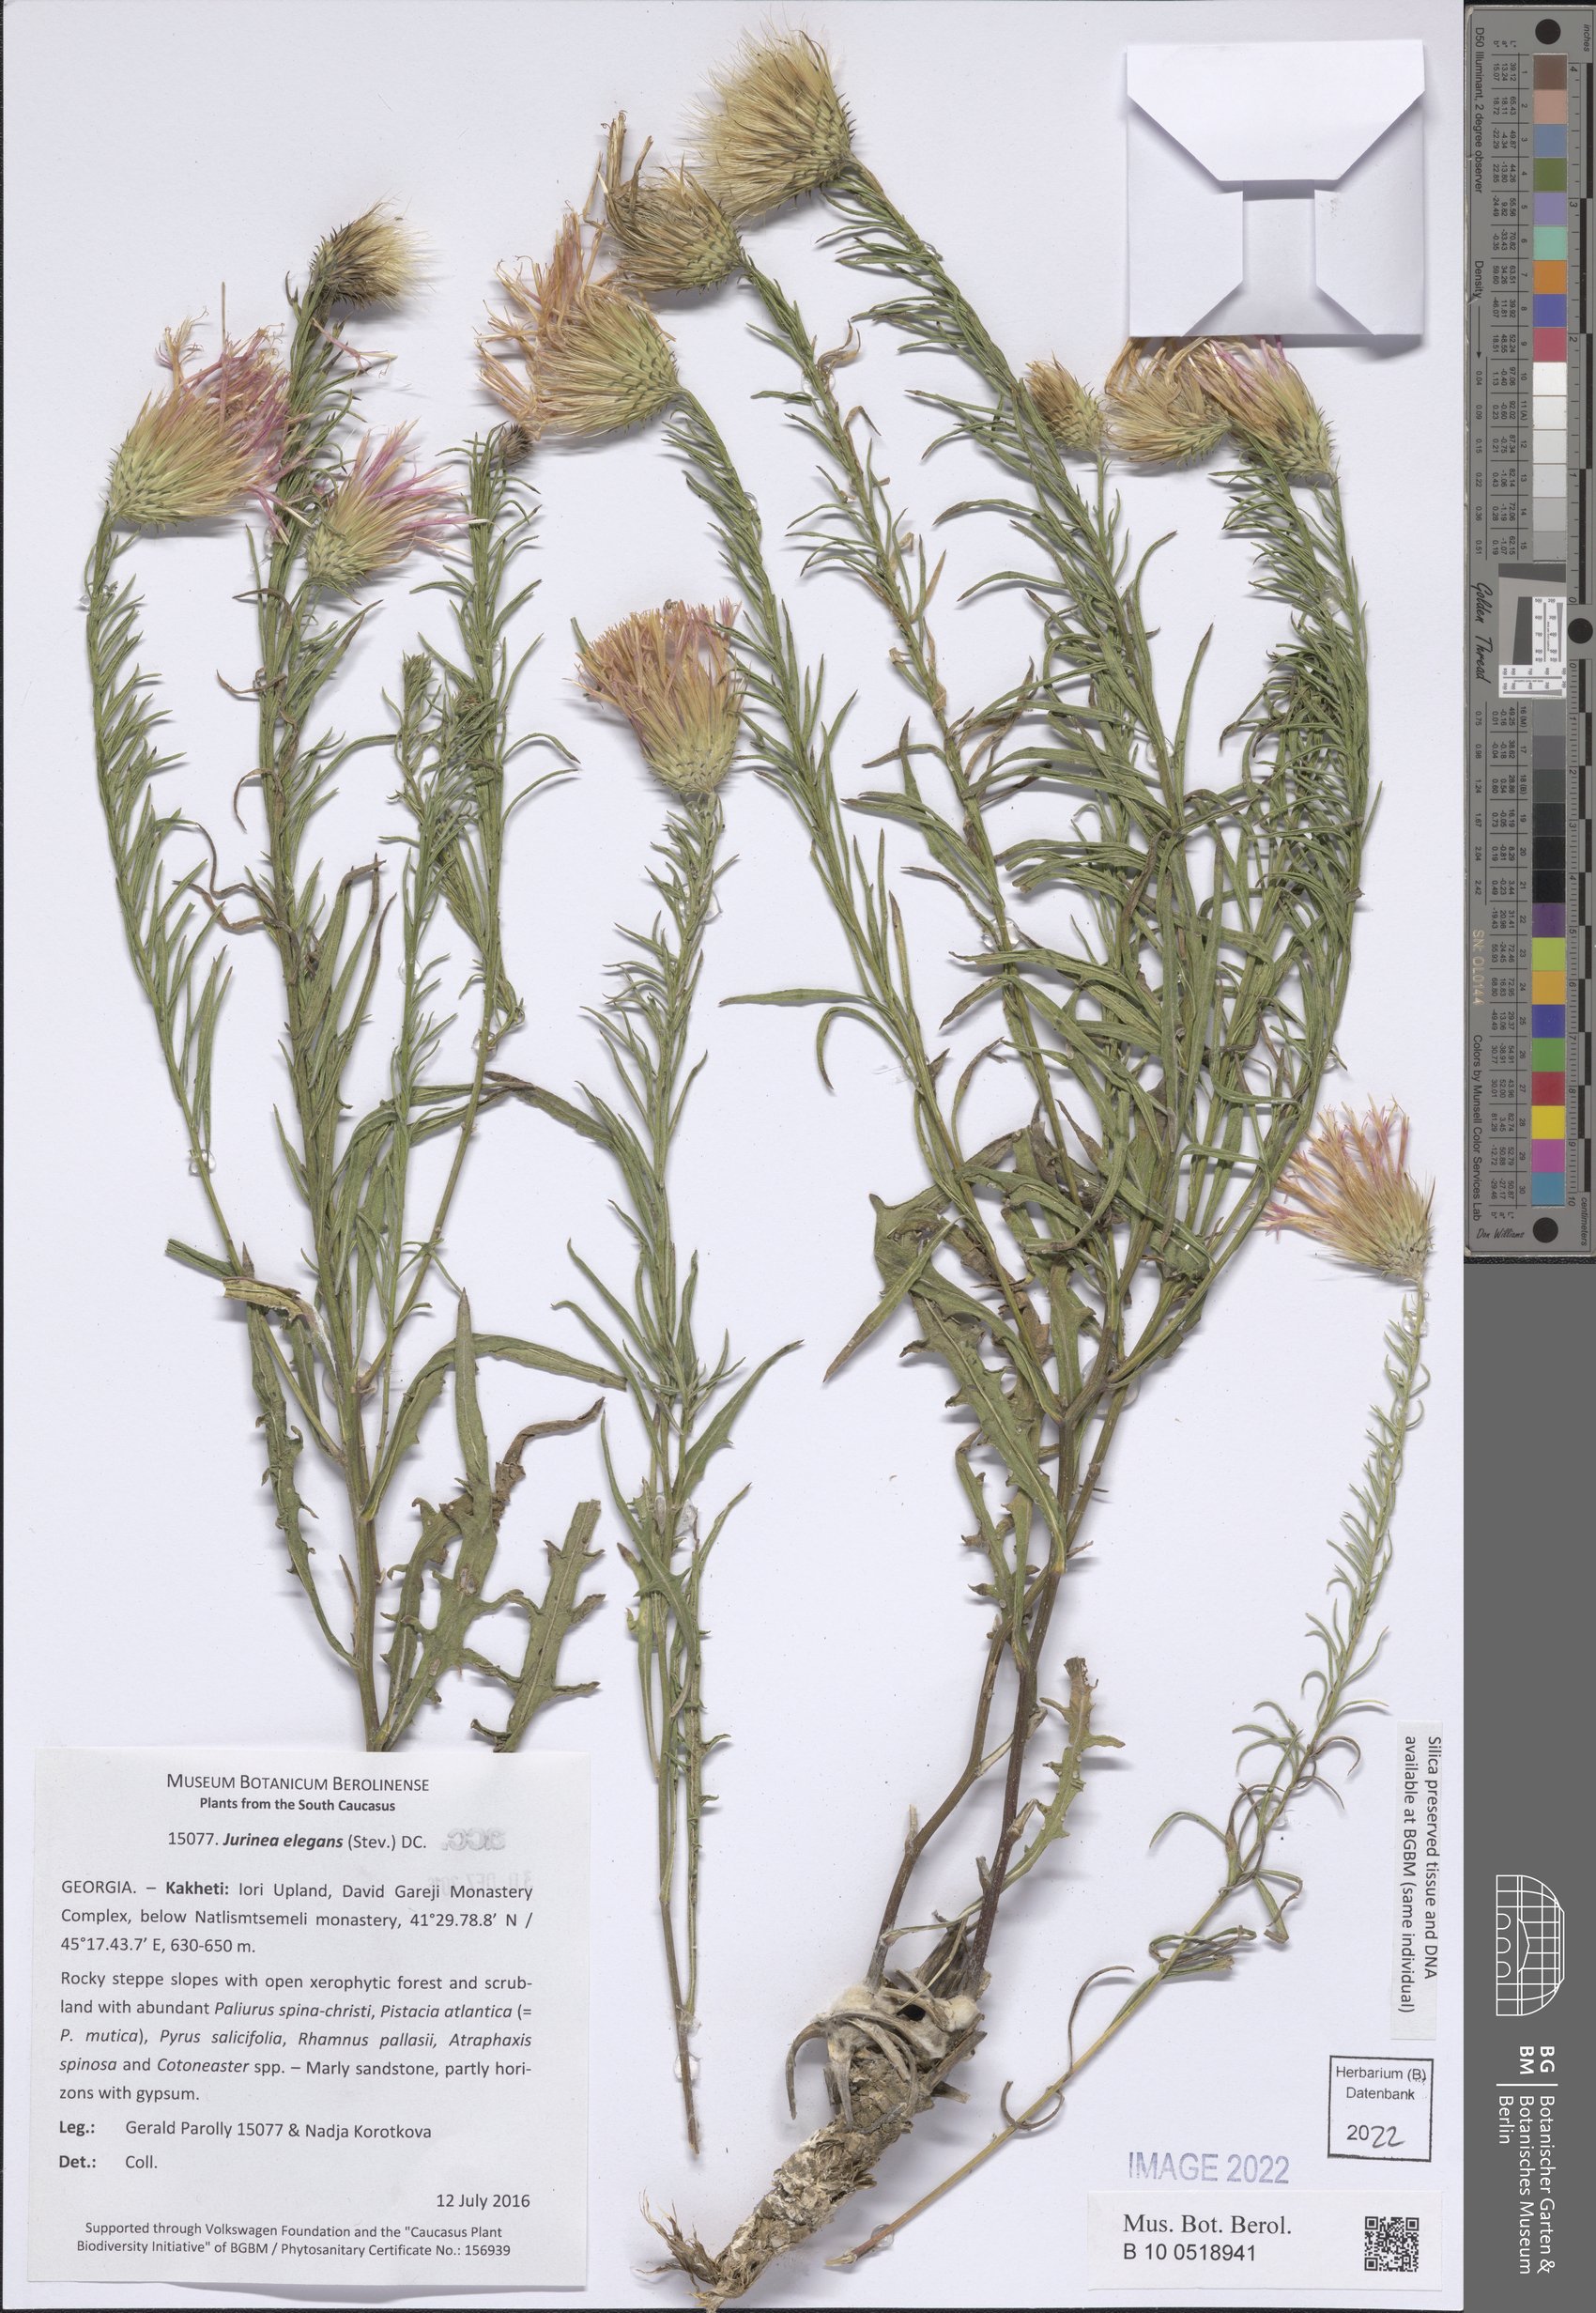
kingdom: Plantae
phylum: Tracheophyta
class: Magnoliopsida
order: Asterales
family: Asteraceae
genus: Jurinea
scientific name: Jurinea elegans
